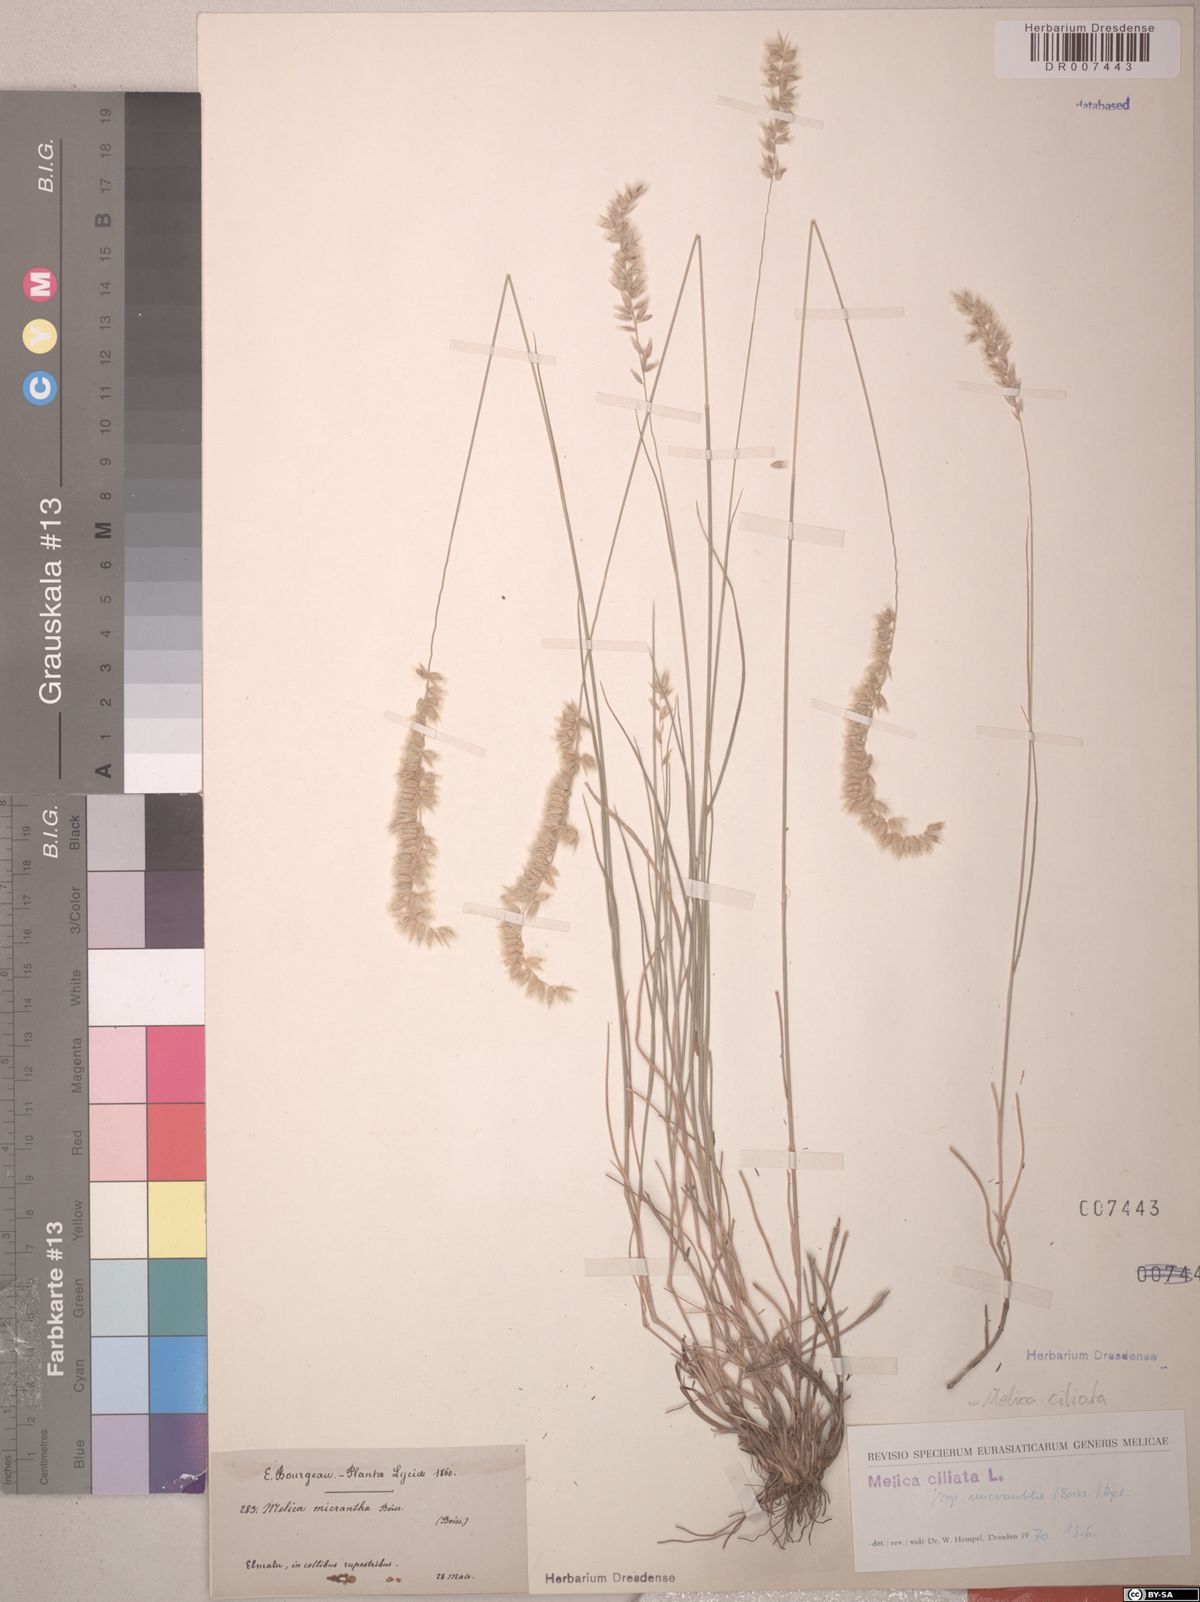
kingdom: Plantae
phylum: Tracheophyta
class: Liliopsida
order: Poales
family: Poaceae
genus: Melica
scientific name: Melica ciliata
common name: Hairy melicgrass
